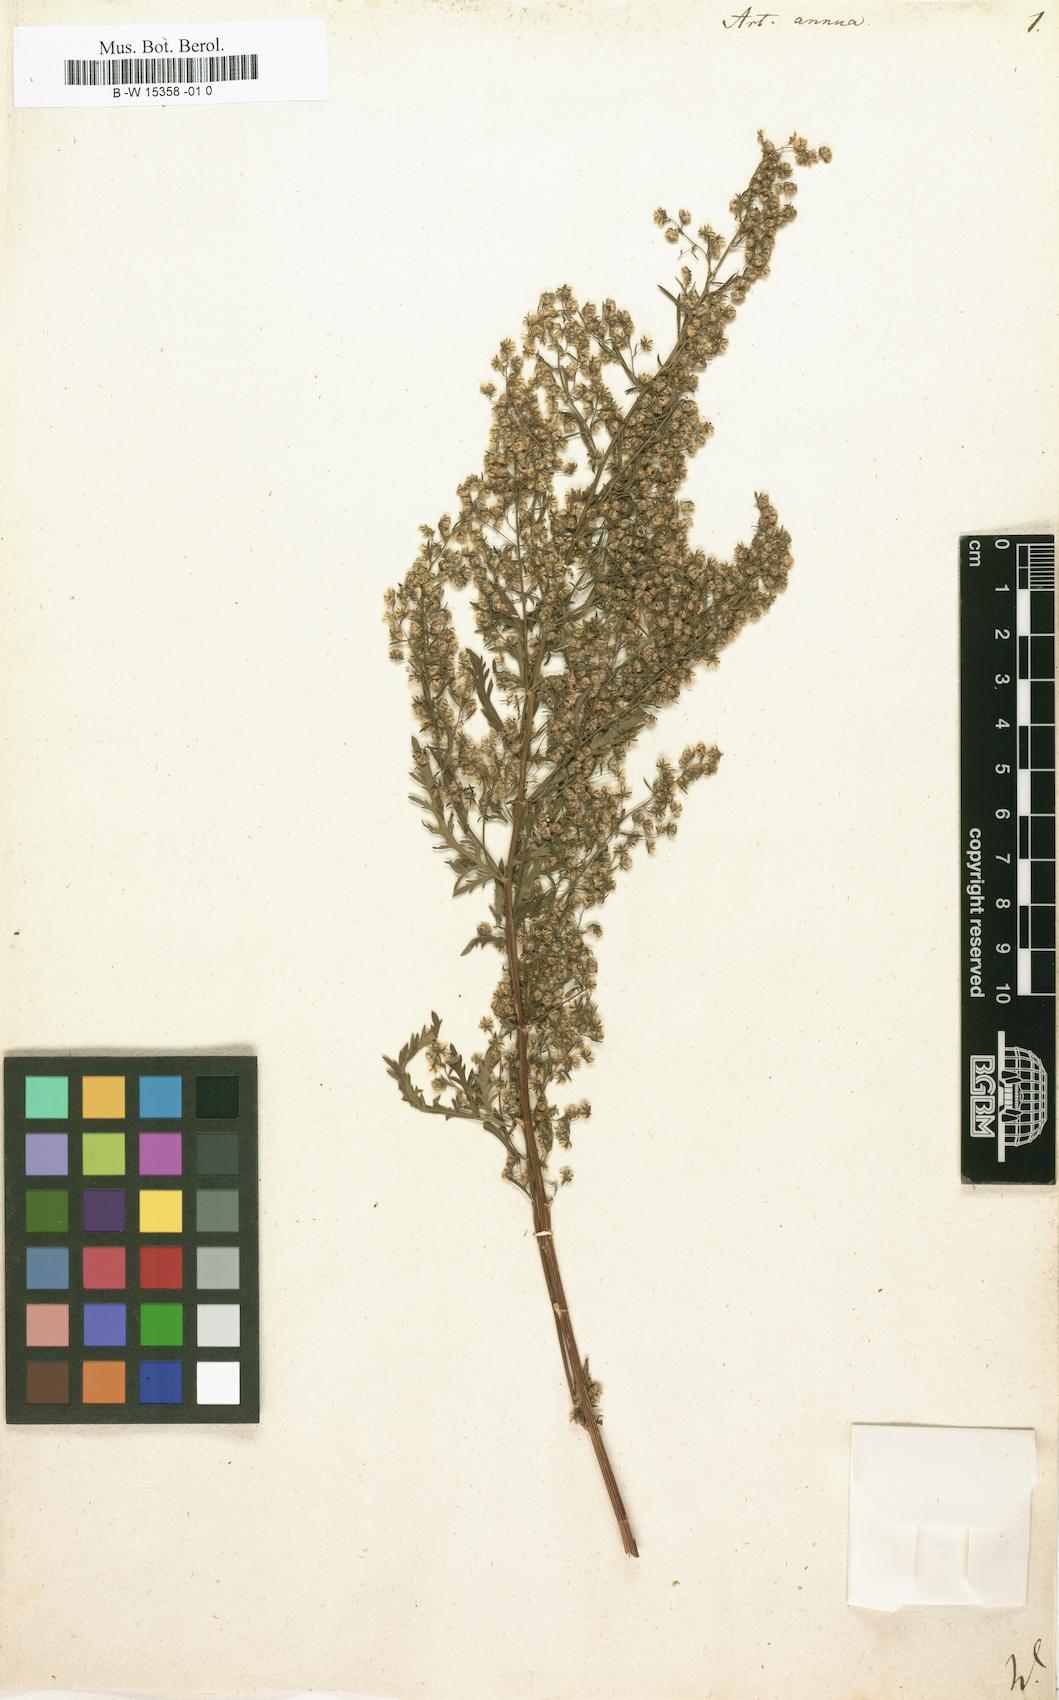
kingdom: Plantae
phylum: Tracheophyta
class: Magnoliopsida
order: Asterales
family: Asteraceae
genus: Artemisia
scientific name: Artemisia annua
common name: Sweet sagewort
